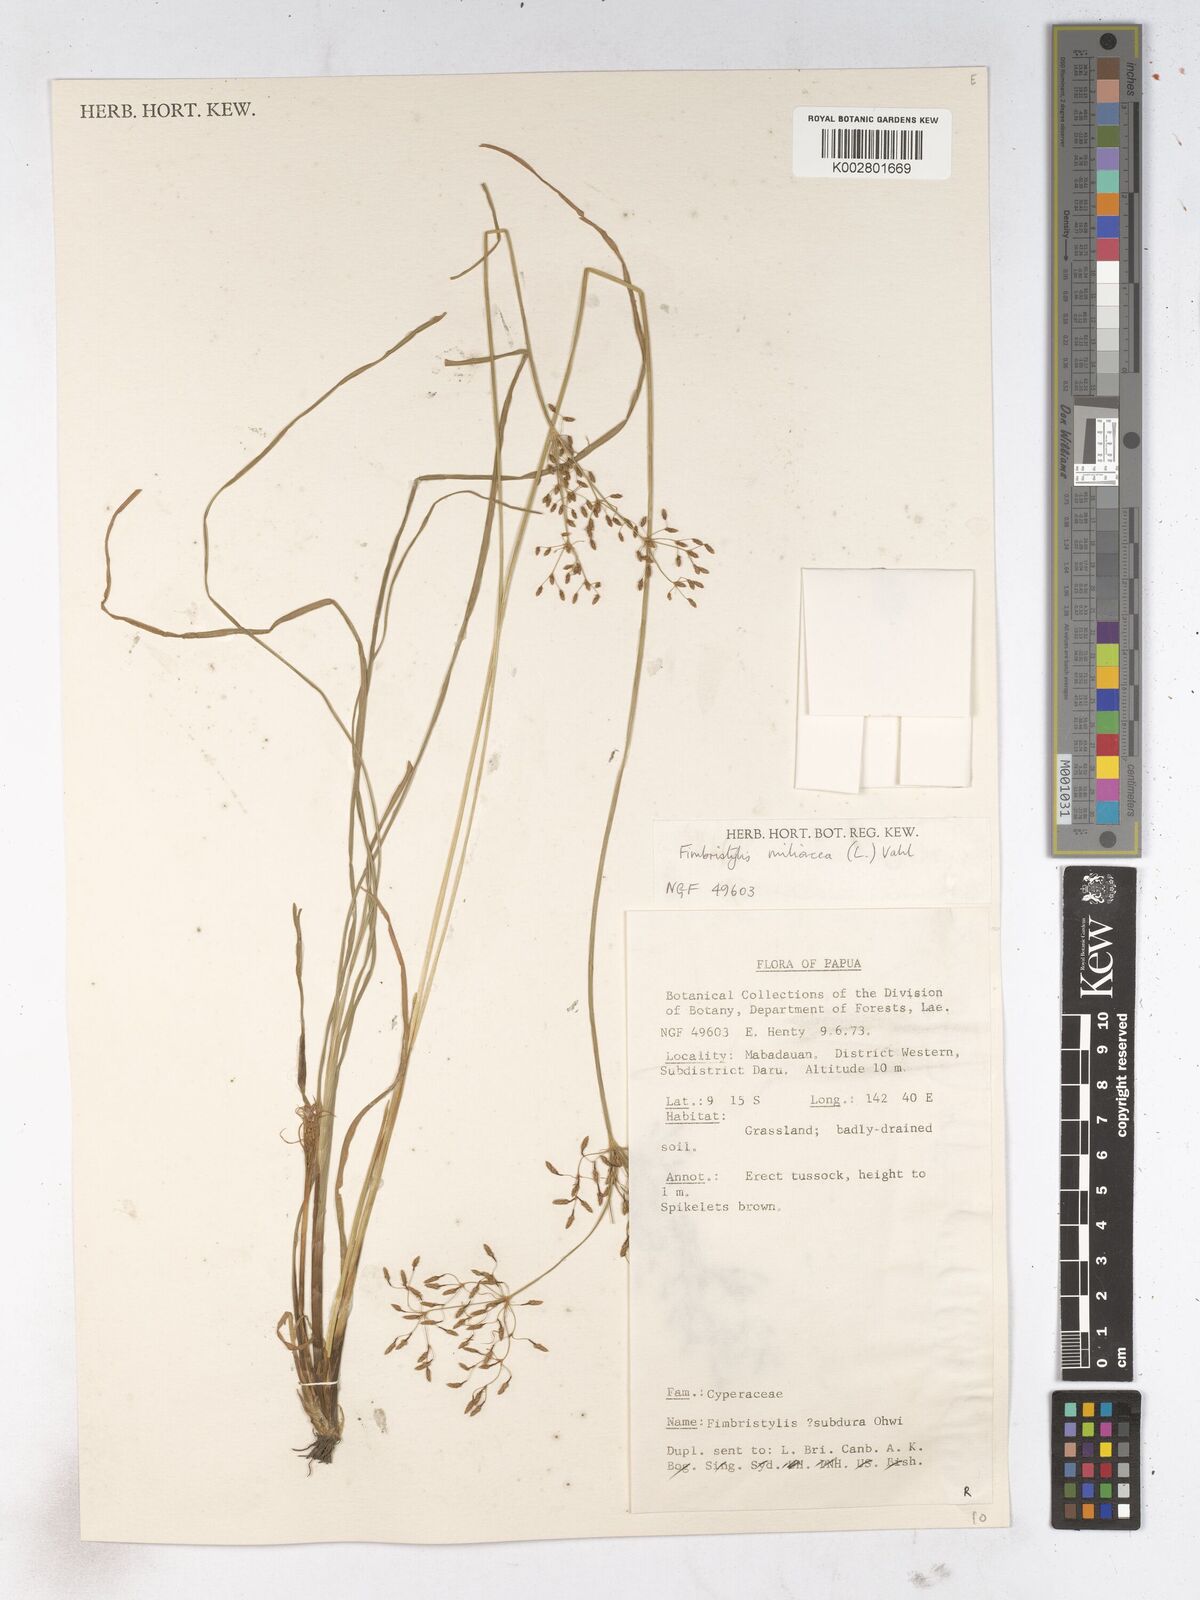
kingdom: Plantae
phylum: Tracheophyta
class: Liliopsida
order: Poales
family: Cyperaceae
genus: Fimbristylis
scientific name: Fimbristylis quinquangularis
